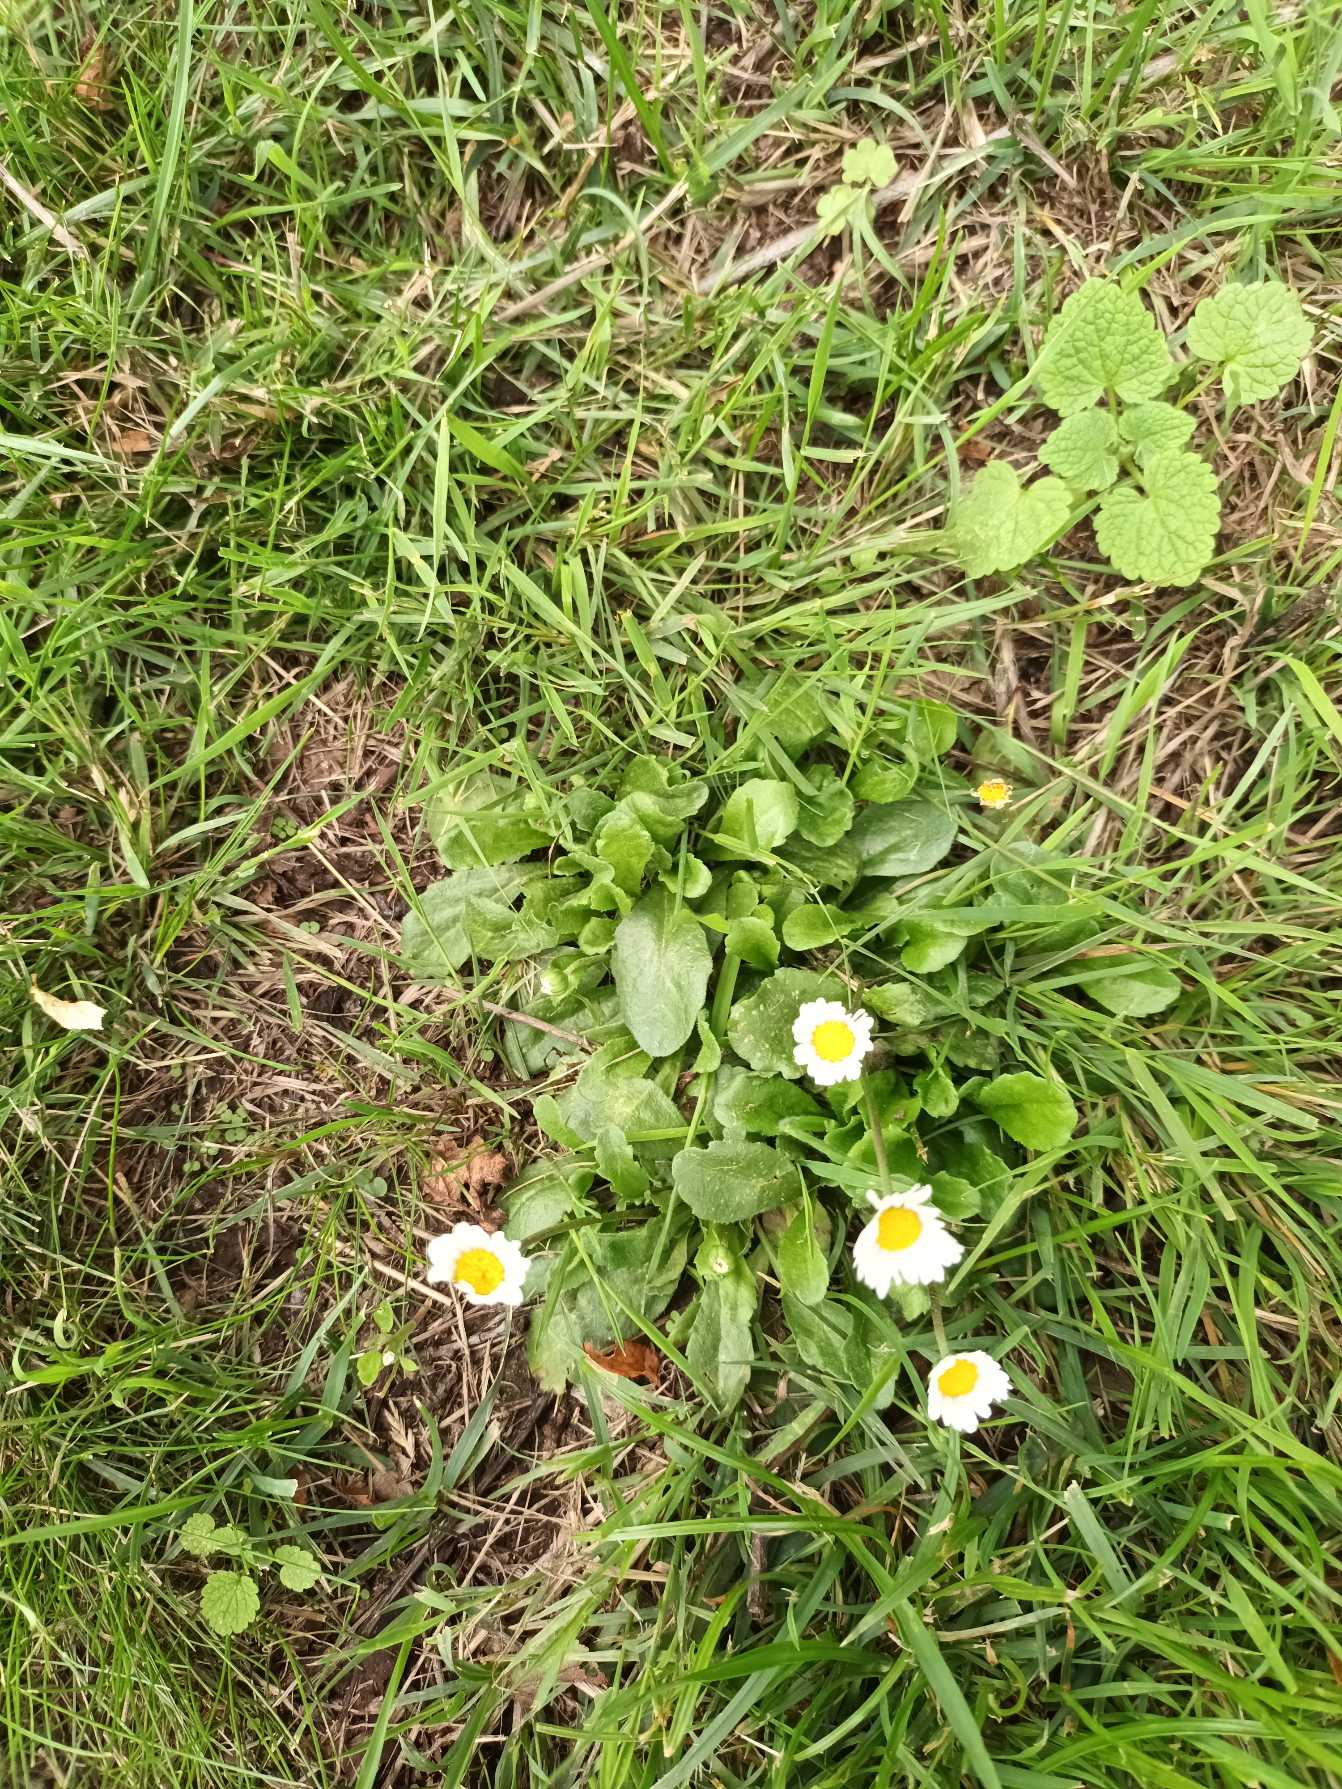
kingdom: Plantae
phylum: Tracheophyta
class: Magnoliopsida
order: Asterales
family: Asteraceae
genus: Bellis
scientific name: Bellis perennis
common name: Tusindfryd
